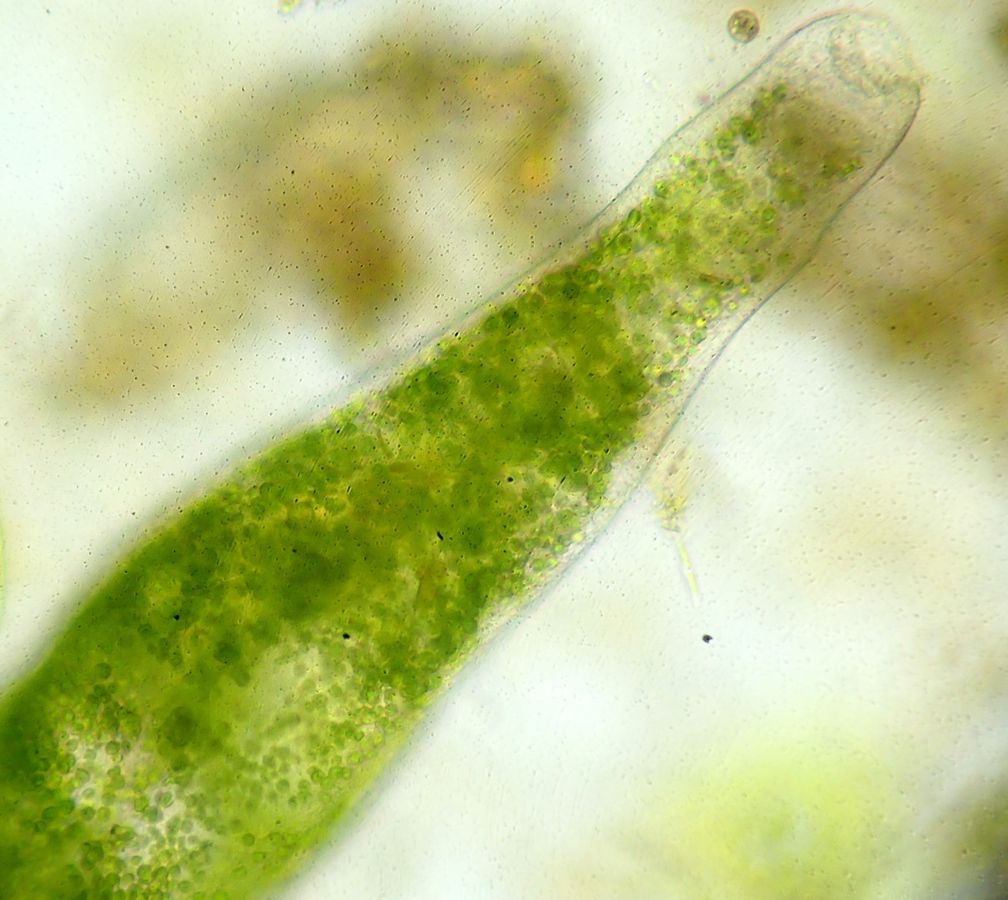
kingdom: Chromista
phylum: Ciliophora
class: Heterotrichea
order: Heterotrichida
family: Stentoridae
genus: Stentor
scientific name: Stentor polymorphus
